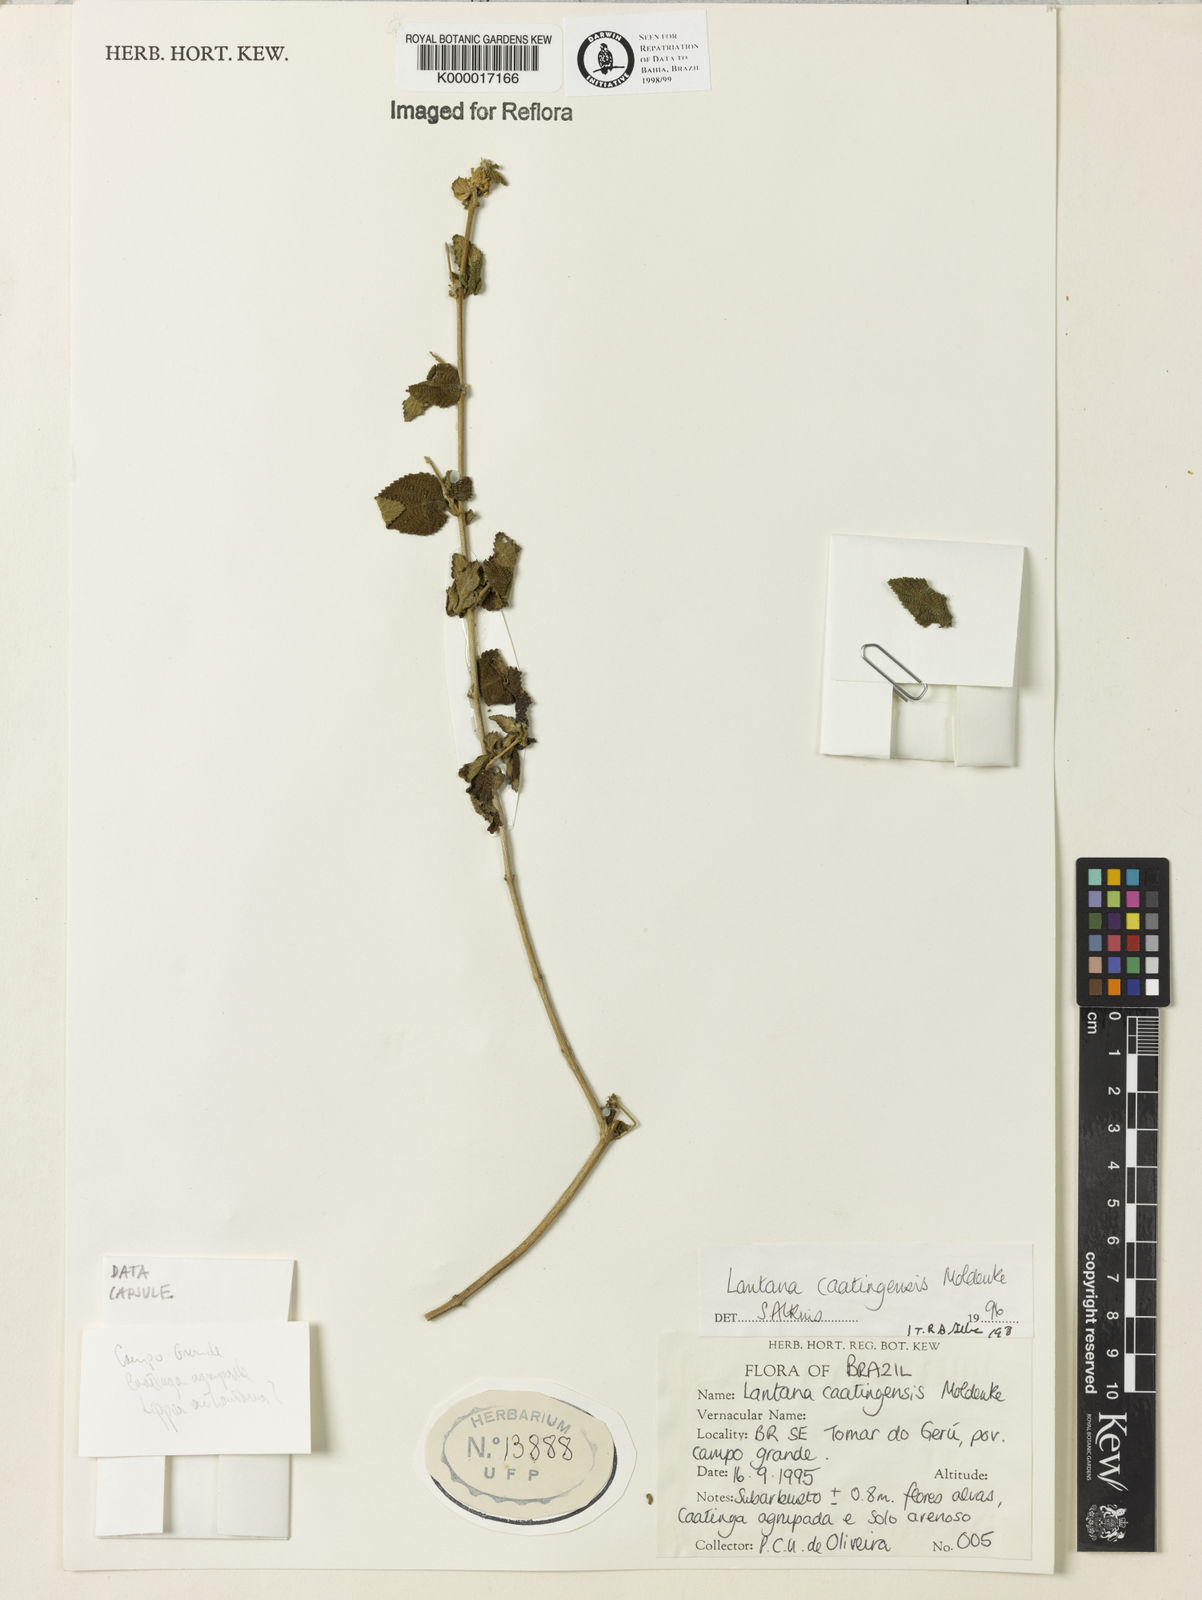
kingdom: Plantae
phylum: Tracheophyta
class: Magnoliopsida
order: Lamiales
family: Verbenaceae
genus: Lantana
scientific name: Lantana caatingensis
